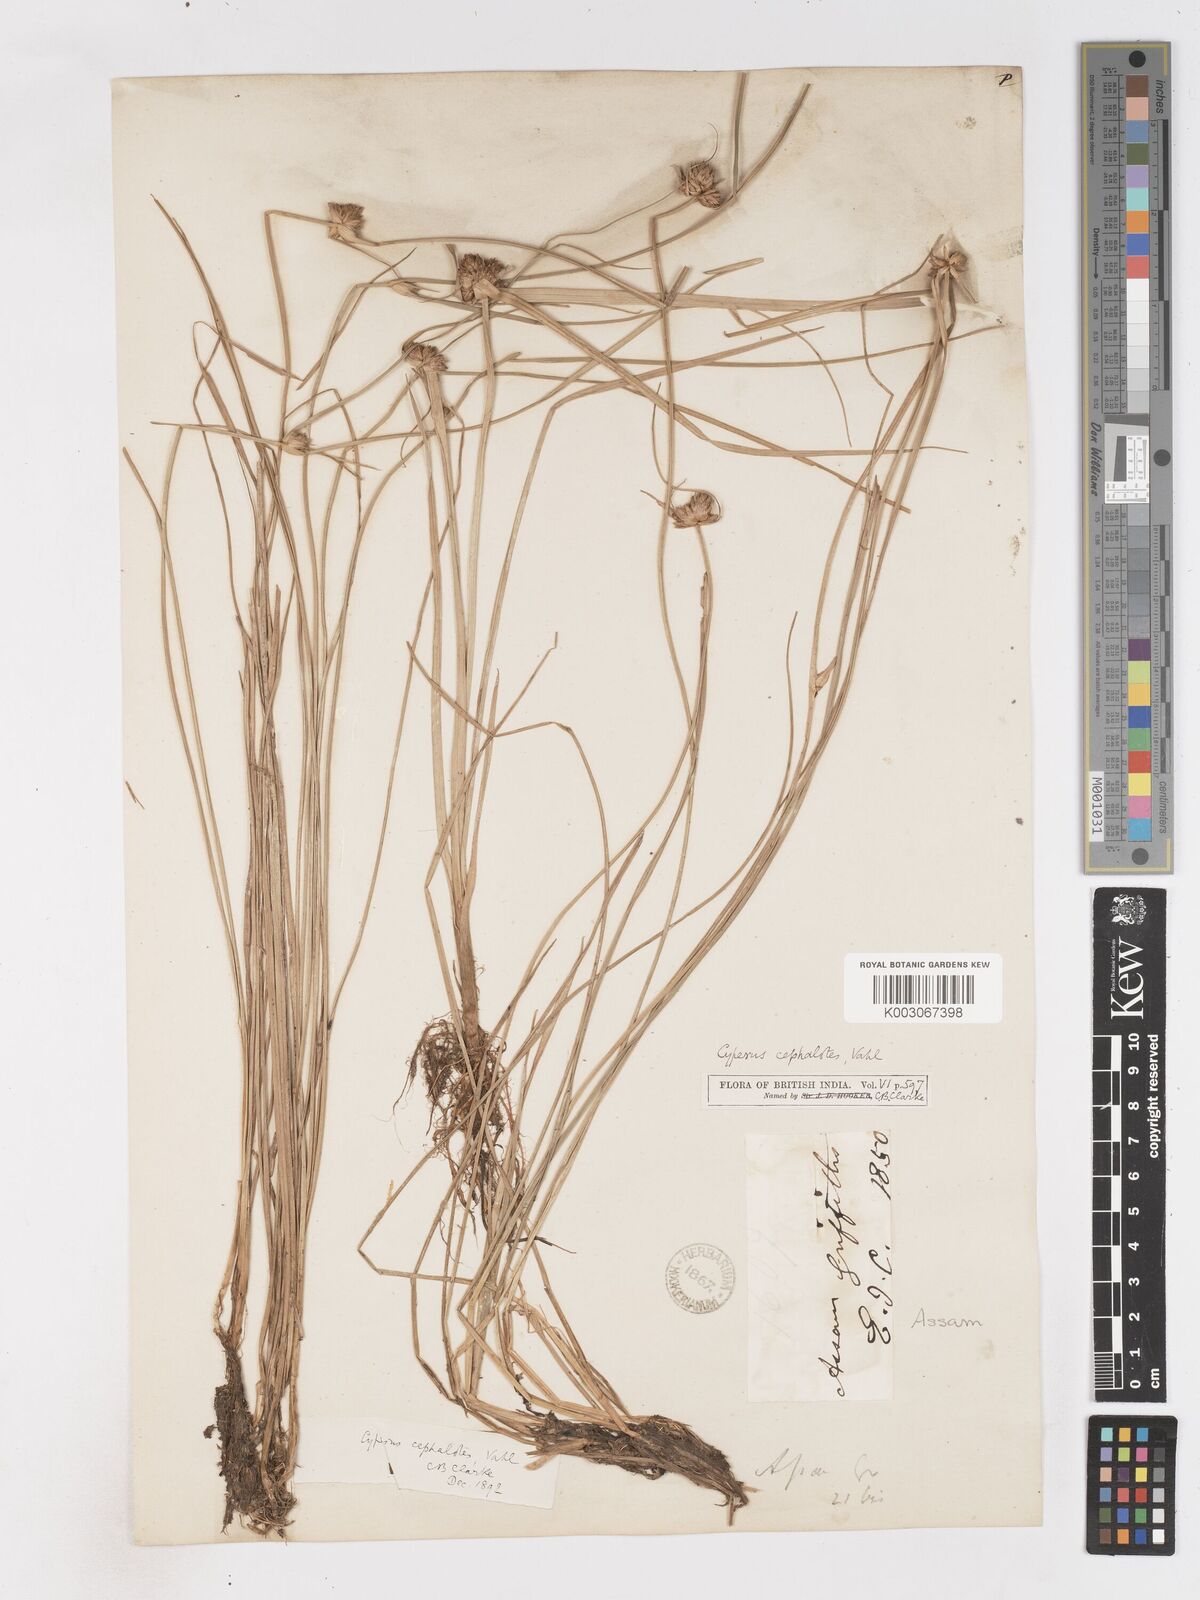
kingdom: Plantae
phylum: Tracheophyta
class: Liliopsida
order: Poales
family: Cyperaceae
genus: Cyperus
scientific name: Cyperus cephalotes
